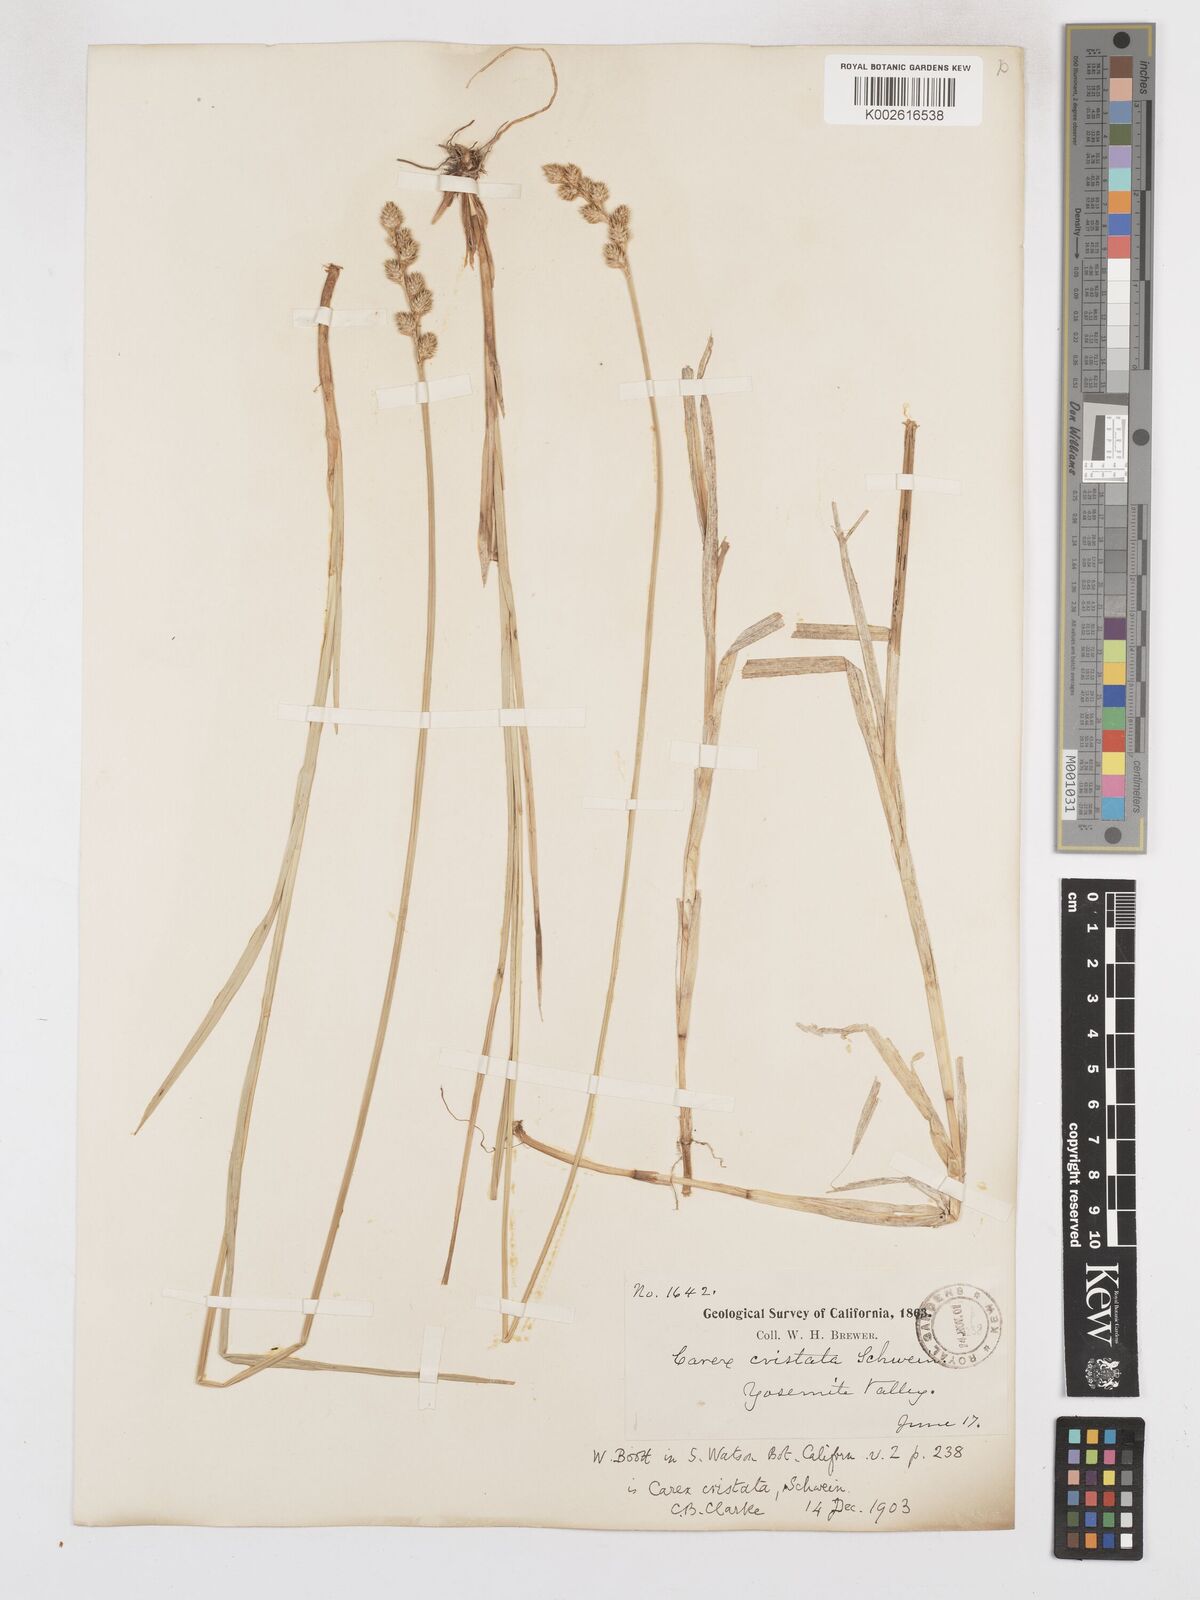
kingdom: Plantae
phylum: Tracheophyta
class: Liliopsida
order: Poales
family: Cyperaceae
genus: Carex
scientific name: Carex cristatella
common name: Crested oval sedge
